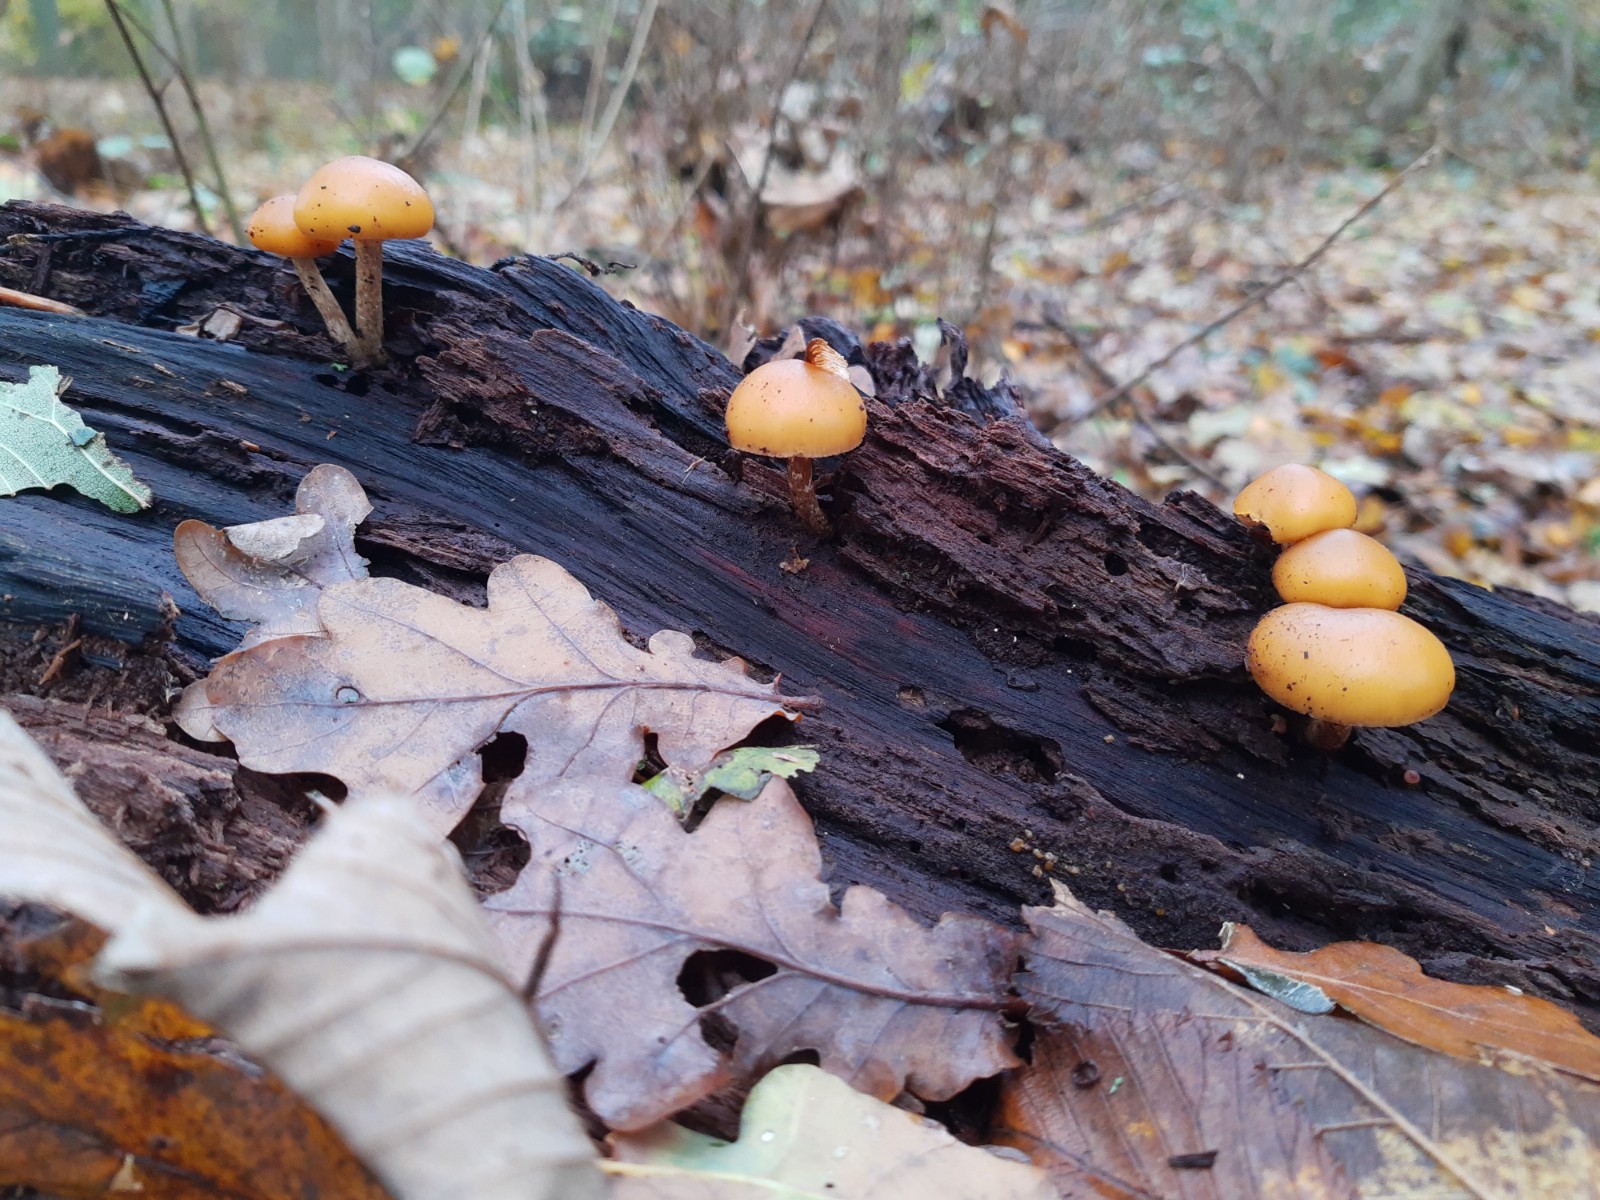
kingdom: Fungi
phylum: Basidiomycota
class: Agaricomycetes
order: Agaricales
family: Hymenogastraceae
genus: Galerina
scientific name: Galerina marginata
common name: randbæltet hjelmhat
